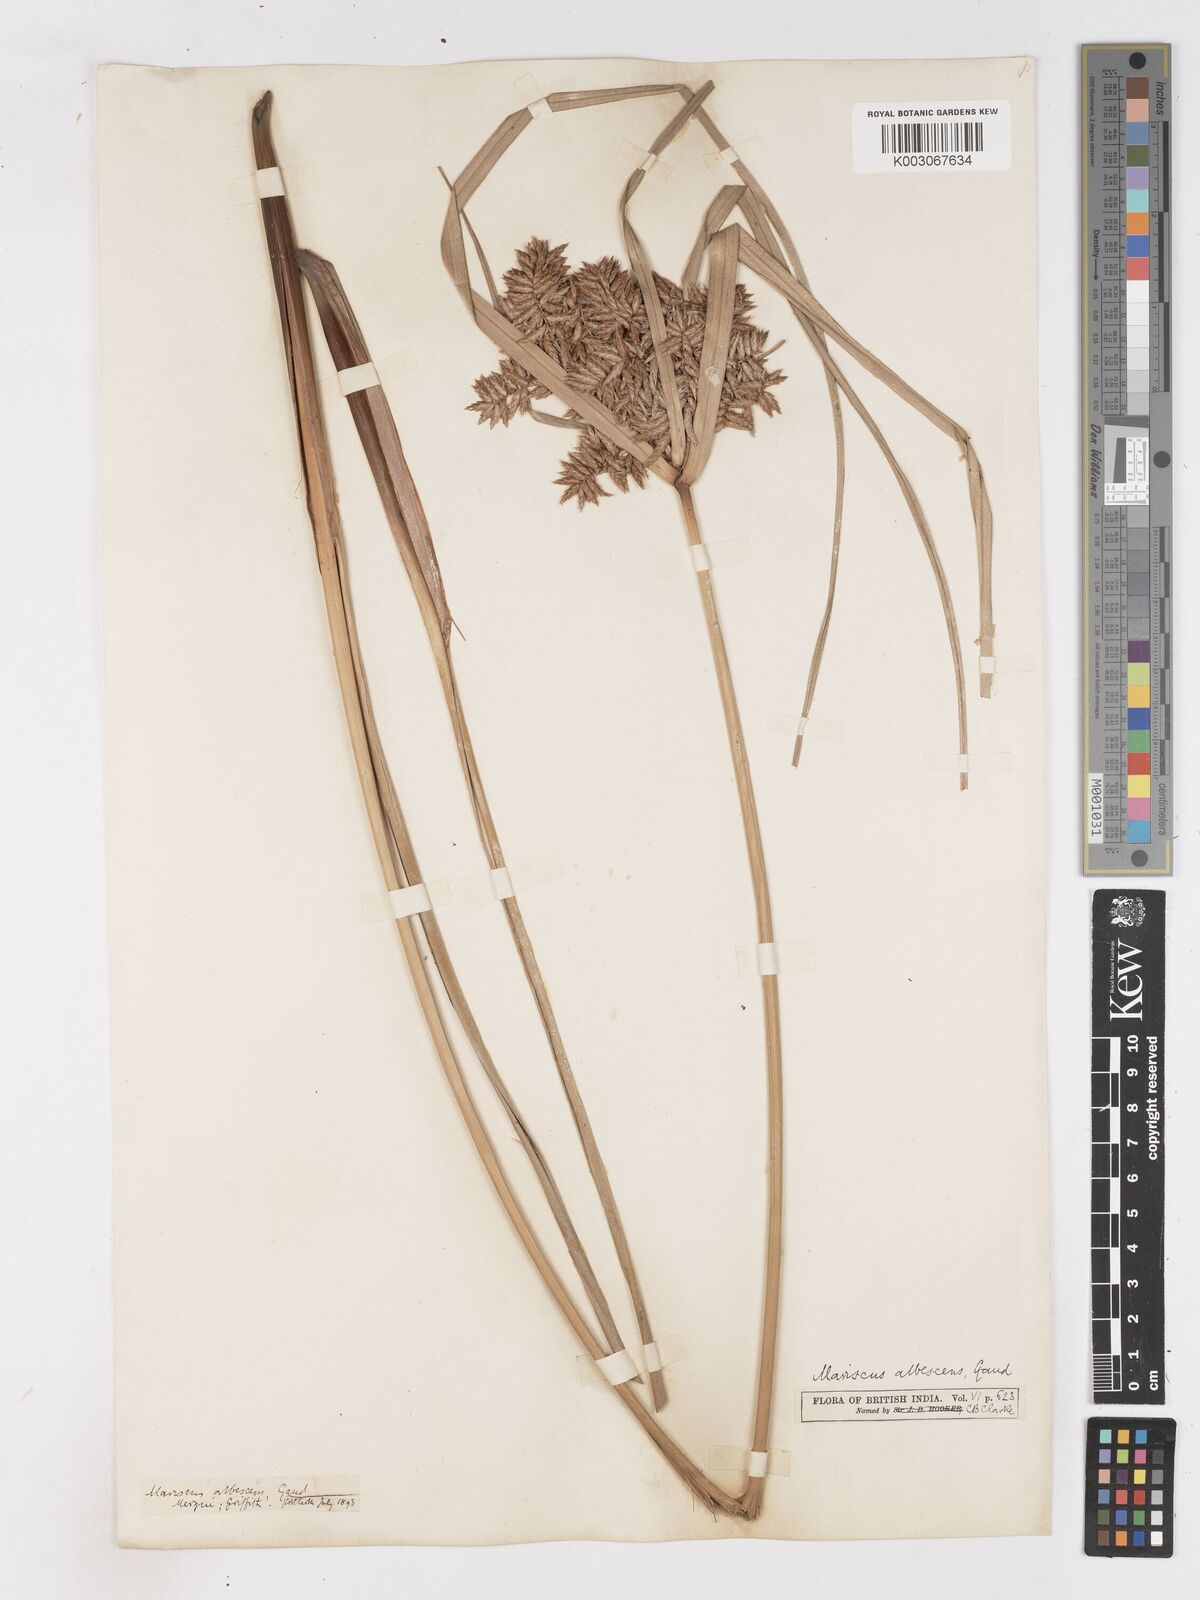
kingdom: Plantae
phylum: Tracheophyta
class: Liliopsida
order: Poales
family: Cyperaceae
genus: Cyperus
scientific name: Cyperus javanicus
